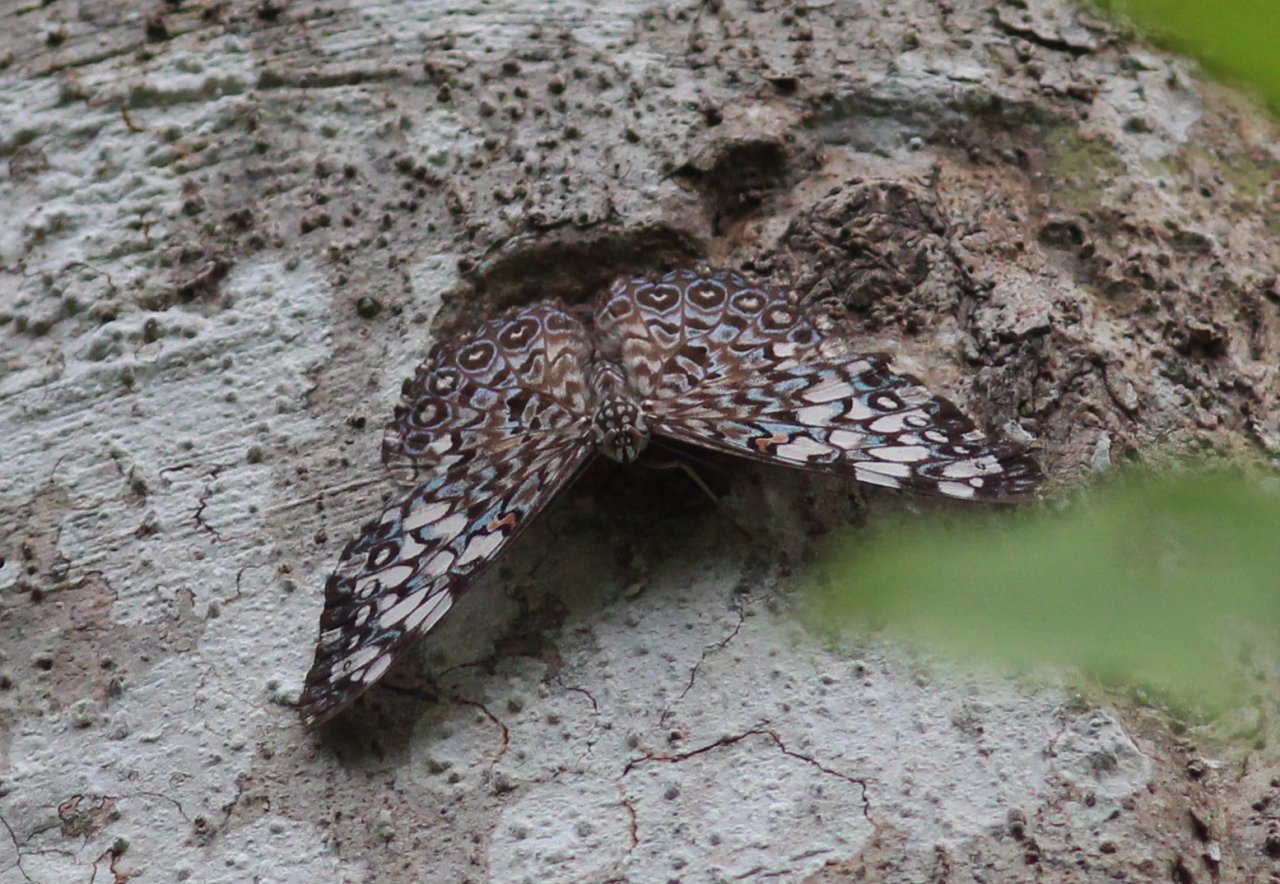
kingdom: Animalia
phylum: Arthropoda
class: Insecta
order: Lepidoptera
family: Nymphalidae
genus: Hamadryas
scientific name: Hamadryas feronia
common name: Variable Cracker
